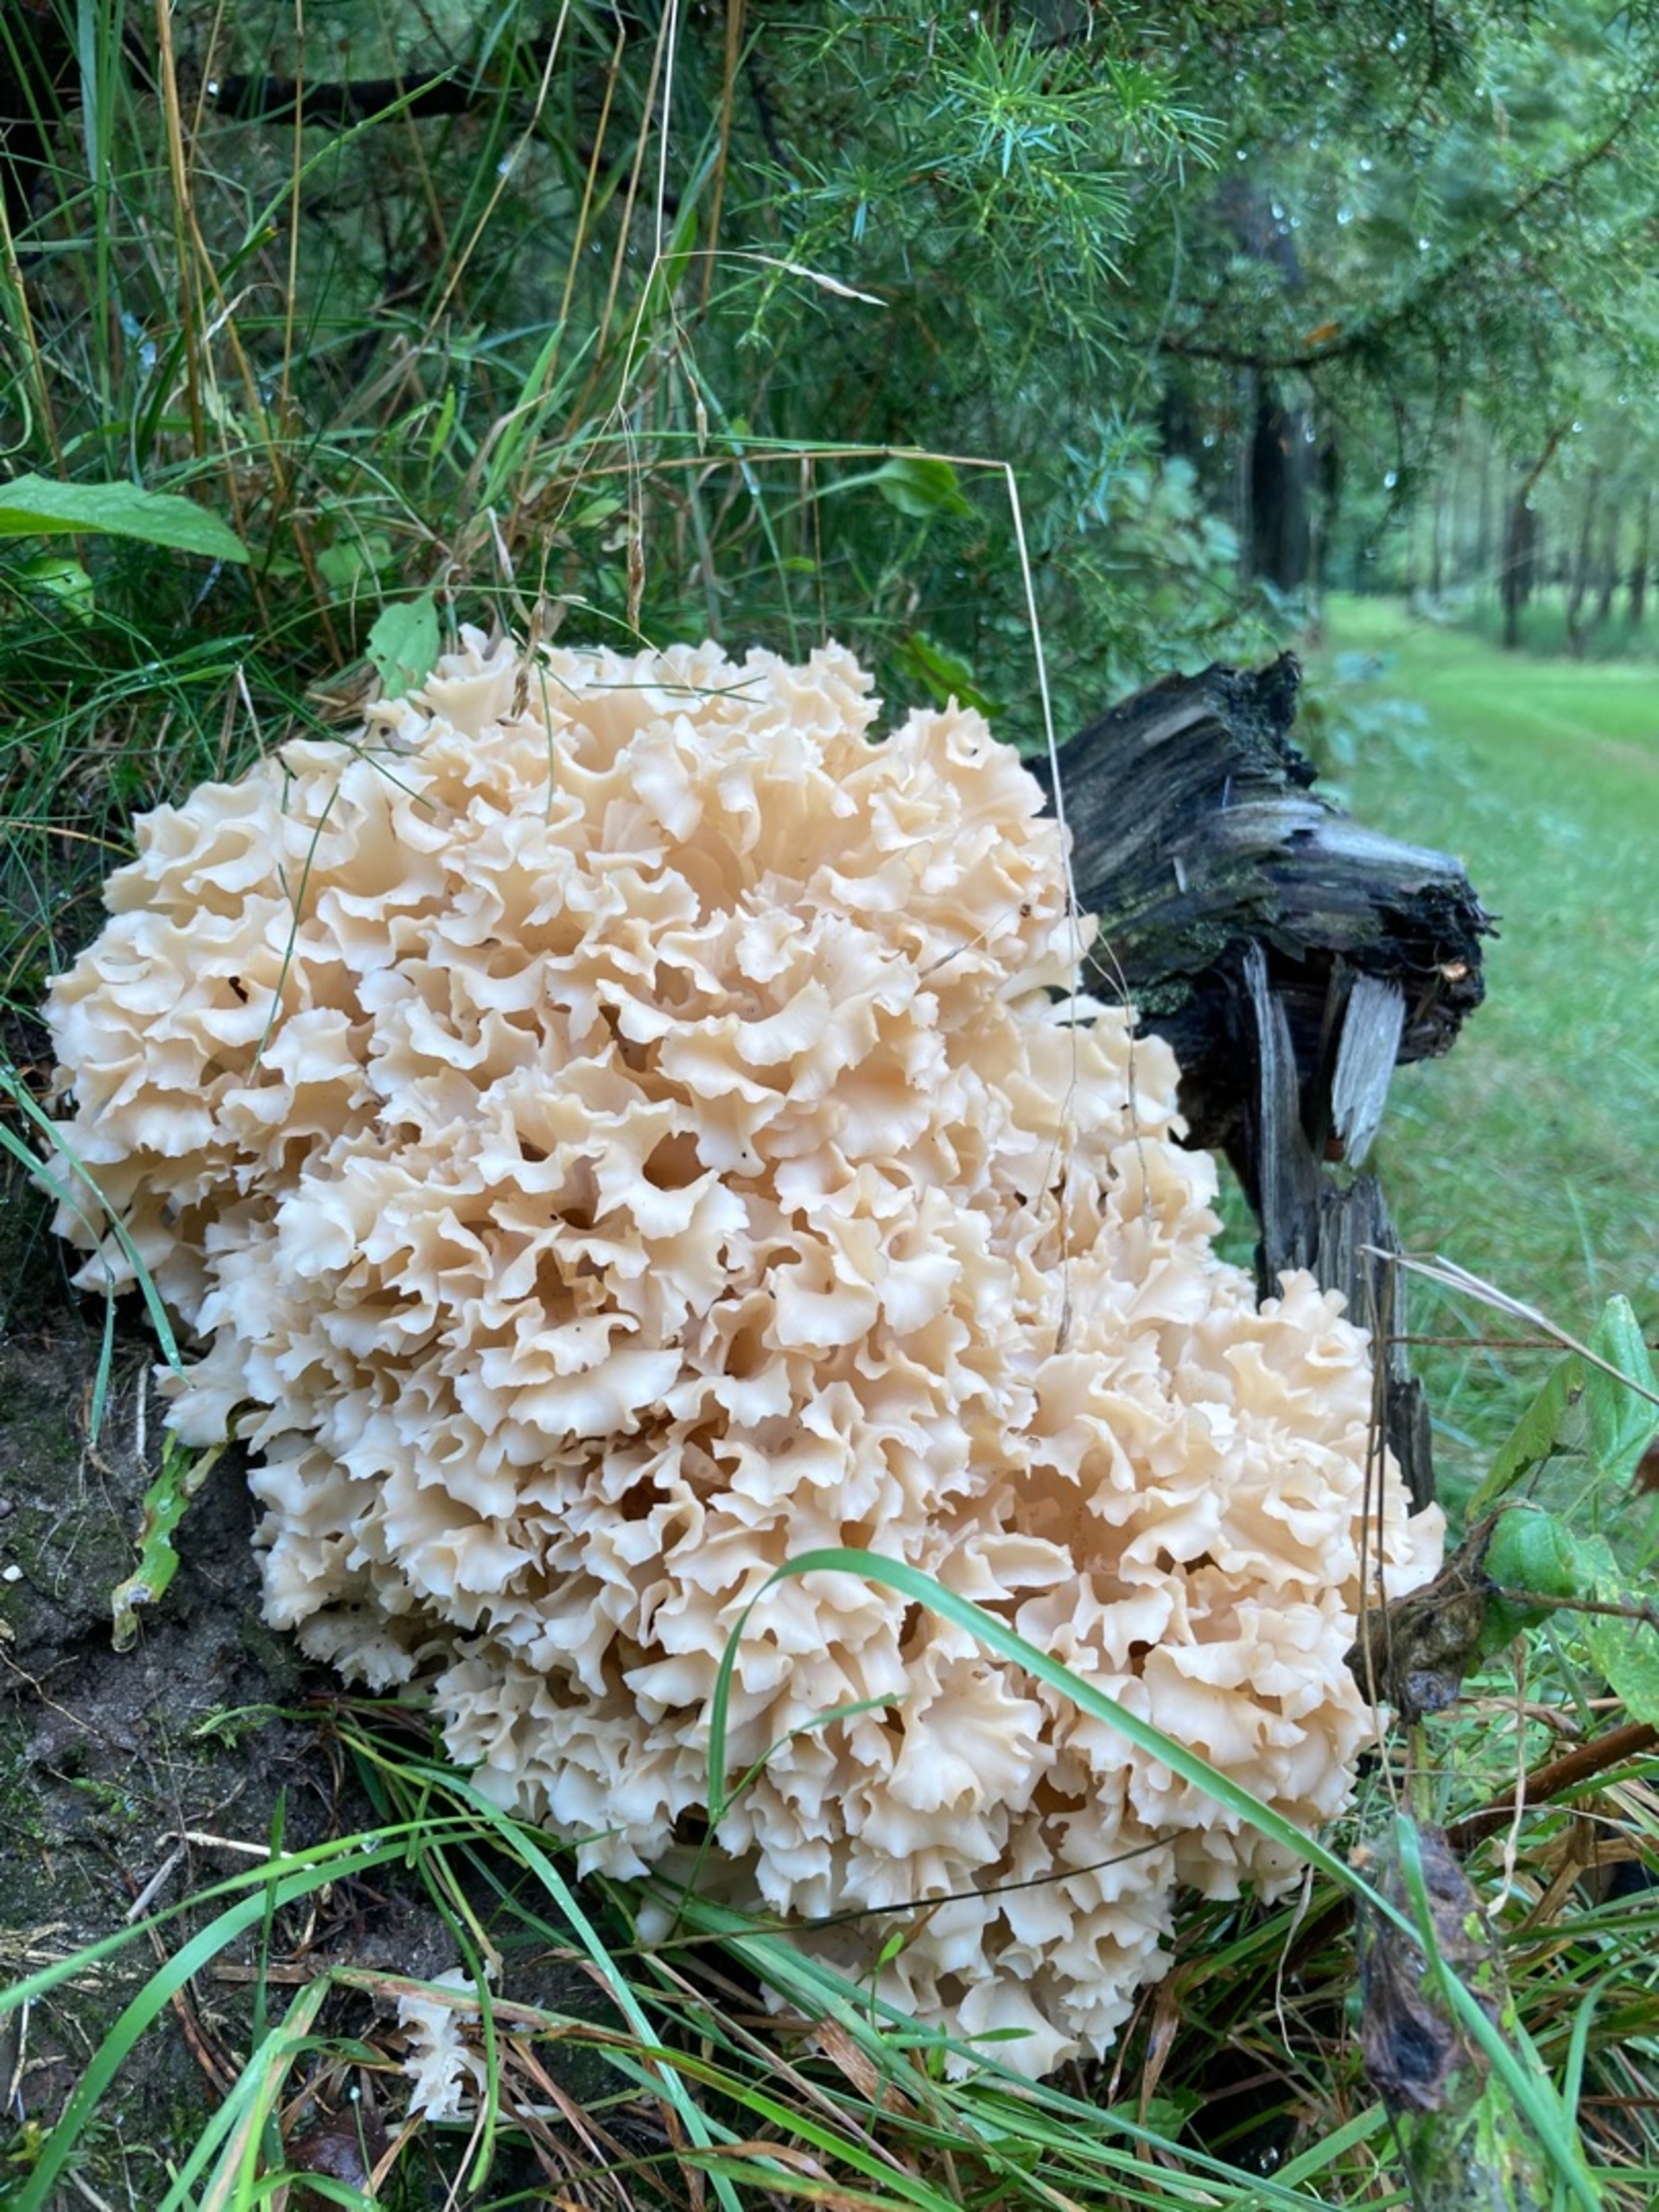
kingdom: Fungi
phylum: Basidiomycota
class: Agaricomycetes
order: Polyporales
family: Sparassidaceae
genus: Sparassis
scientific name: Sparassis crispa
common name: Kruset blomkålssvamp
